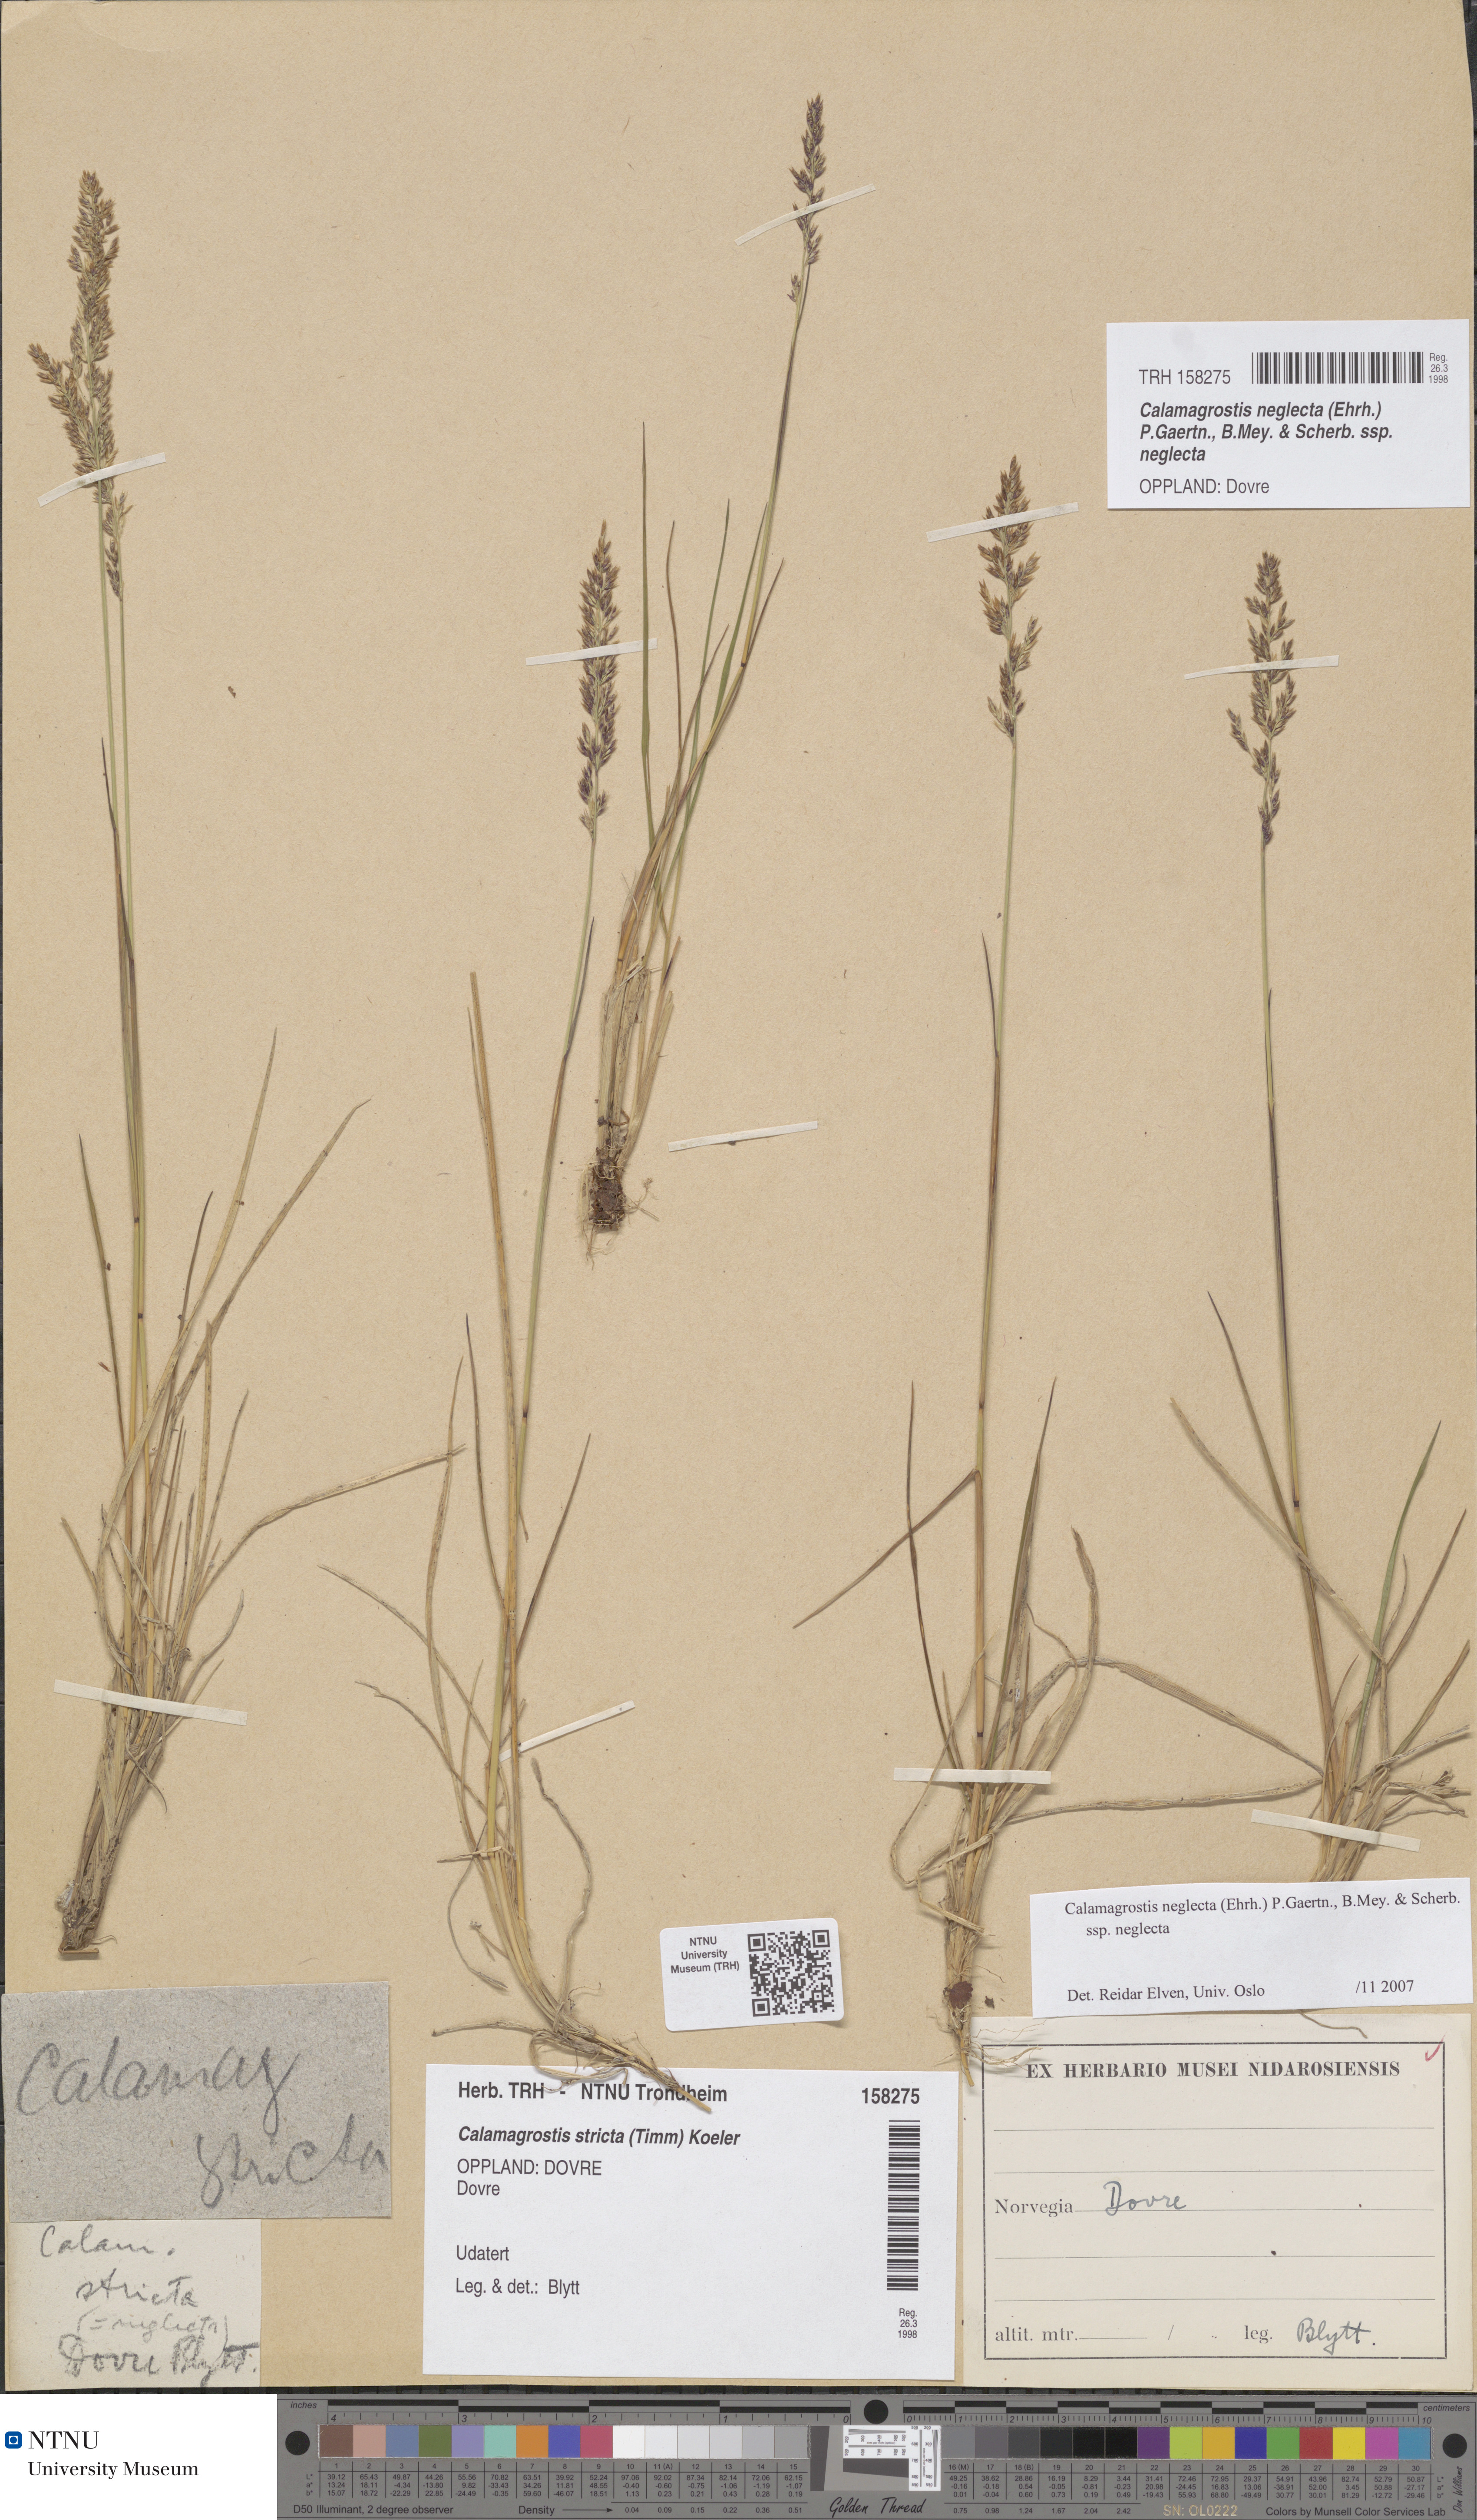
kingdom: Plantae
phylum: Tracheophyta
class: Liliopsida
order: Poales
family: Poaceae
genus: Achnatherum
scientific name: Achnatherum calamagrostis
